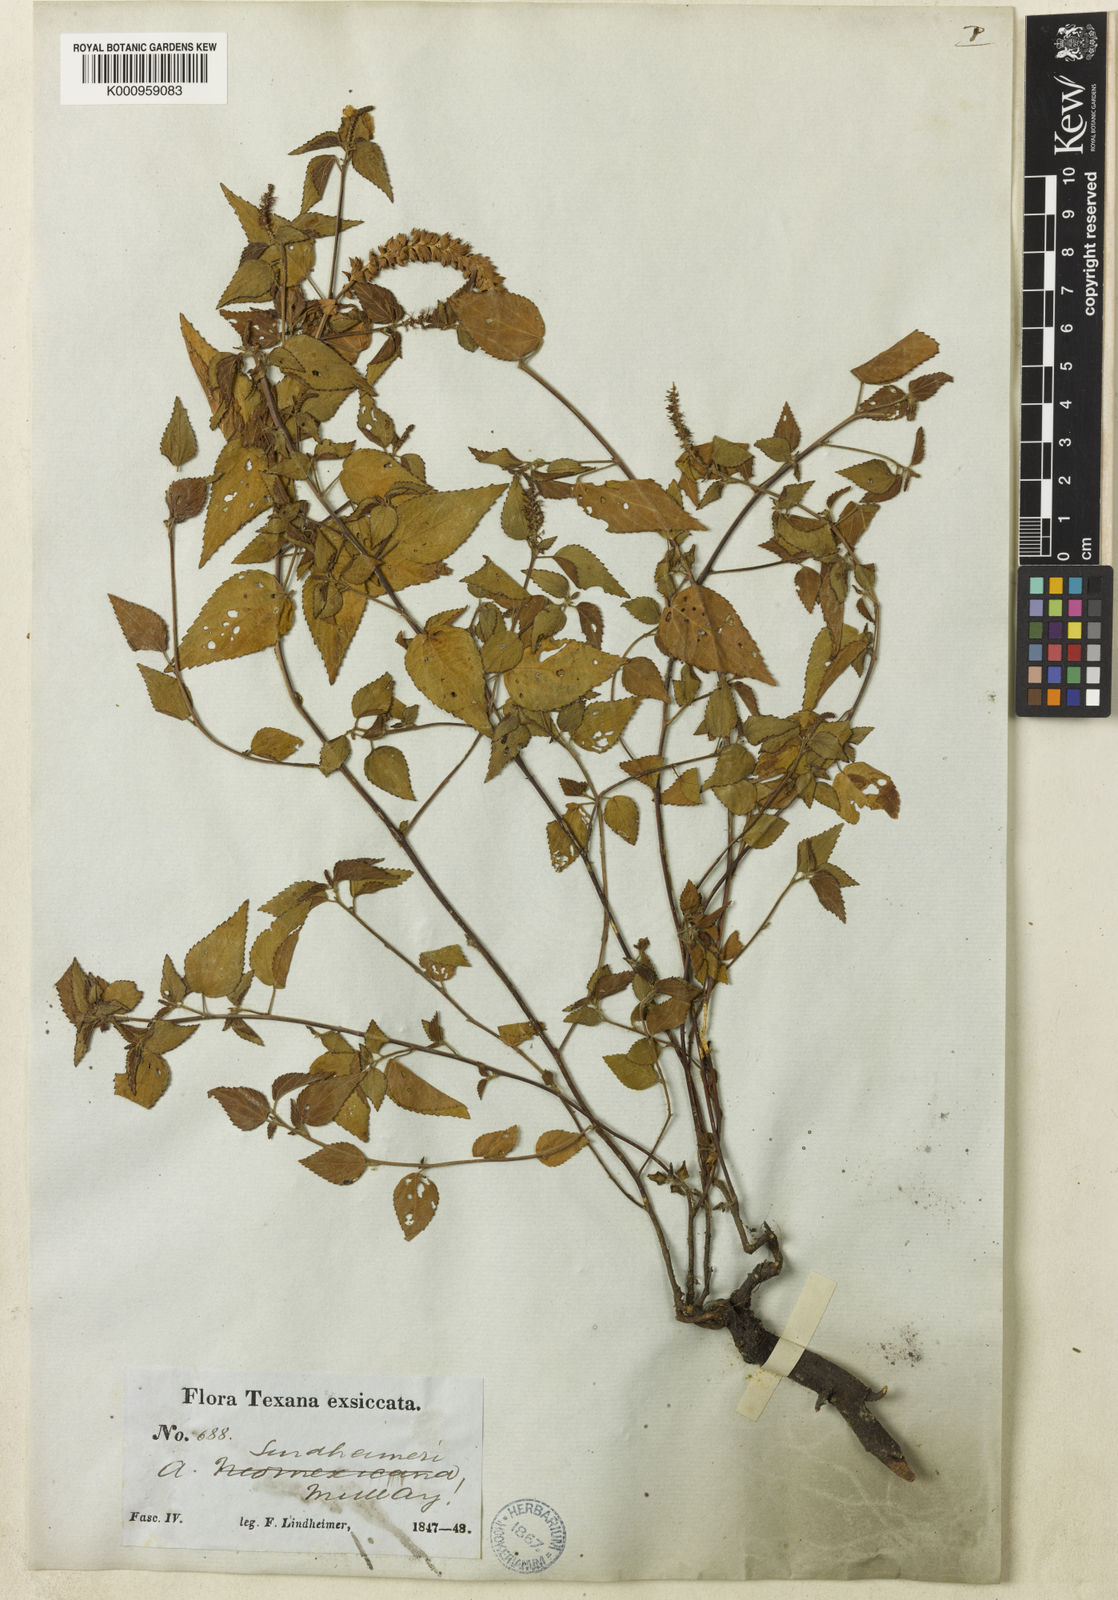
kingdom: Plantae
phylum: Tracheophyta
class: Magnoliopsida
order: Malpighiales
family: Euphorbiaceae
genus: Acalypha
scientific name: Acalypha phleoides
